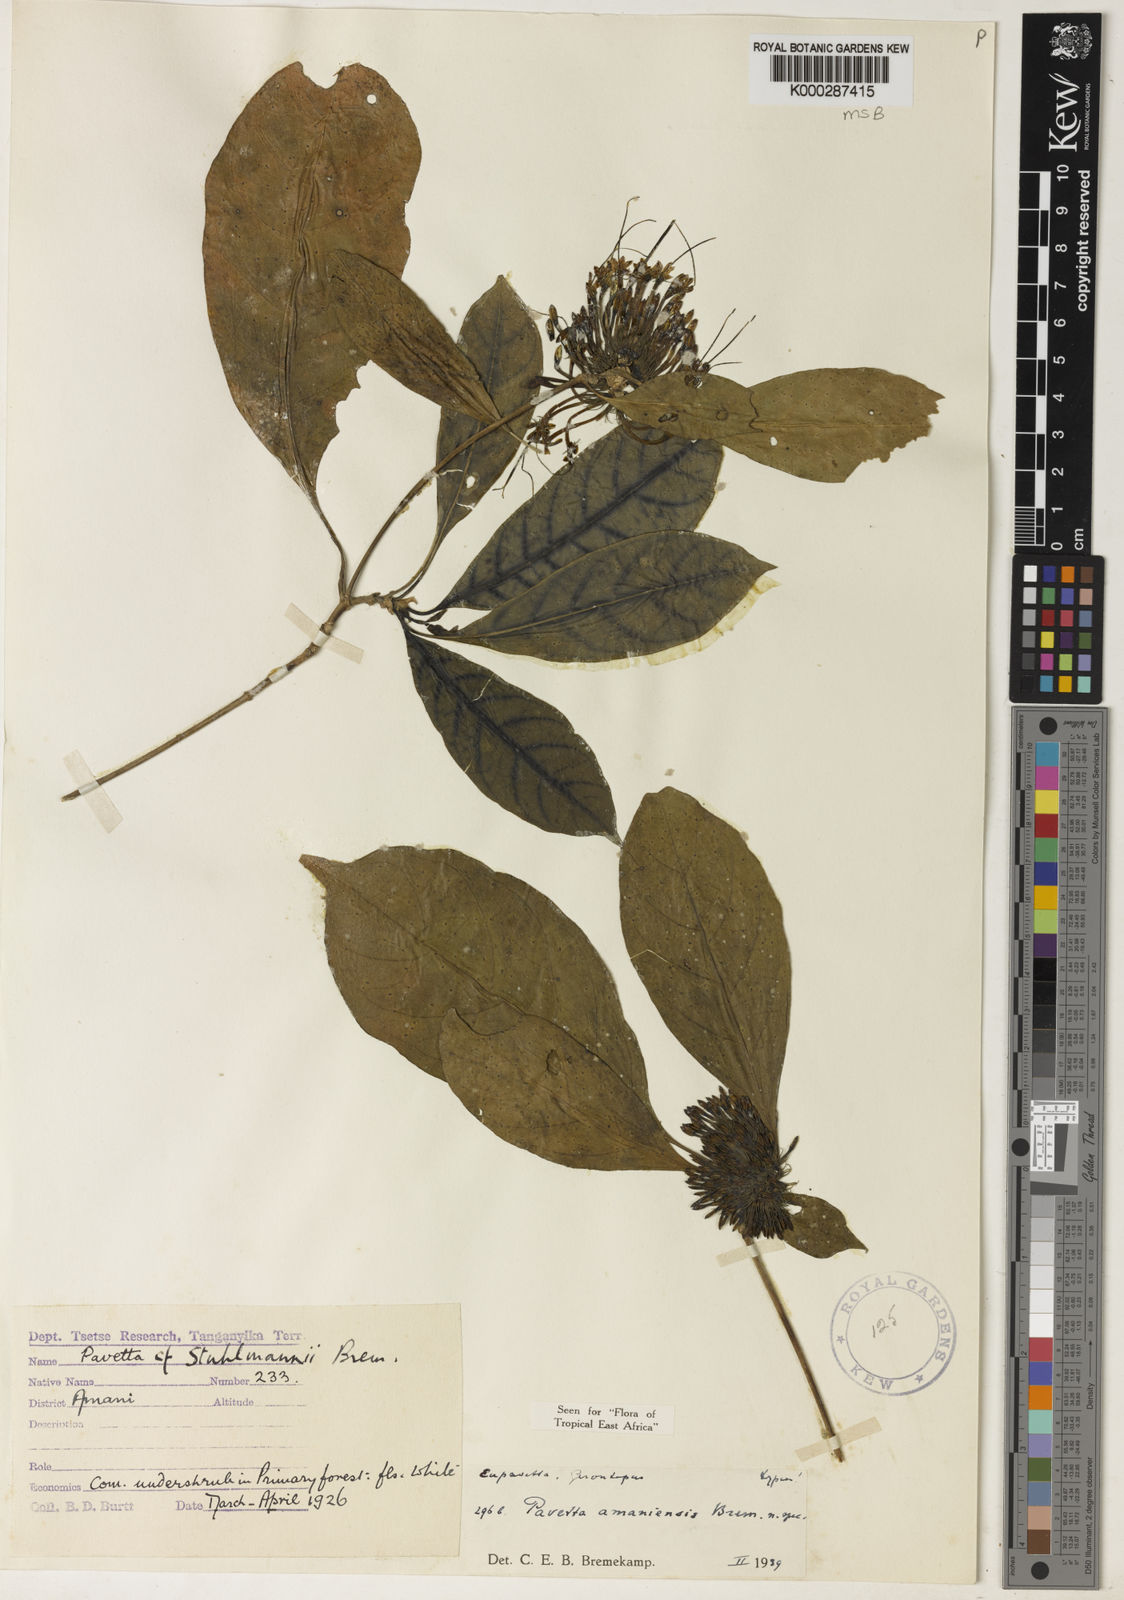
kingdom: Plantae
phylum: Tracheophyta
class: Magnoliopsida
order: Gentianales
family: Rubiaceae
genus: Pavetta
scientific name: Pavetta amaniensis
